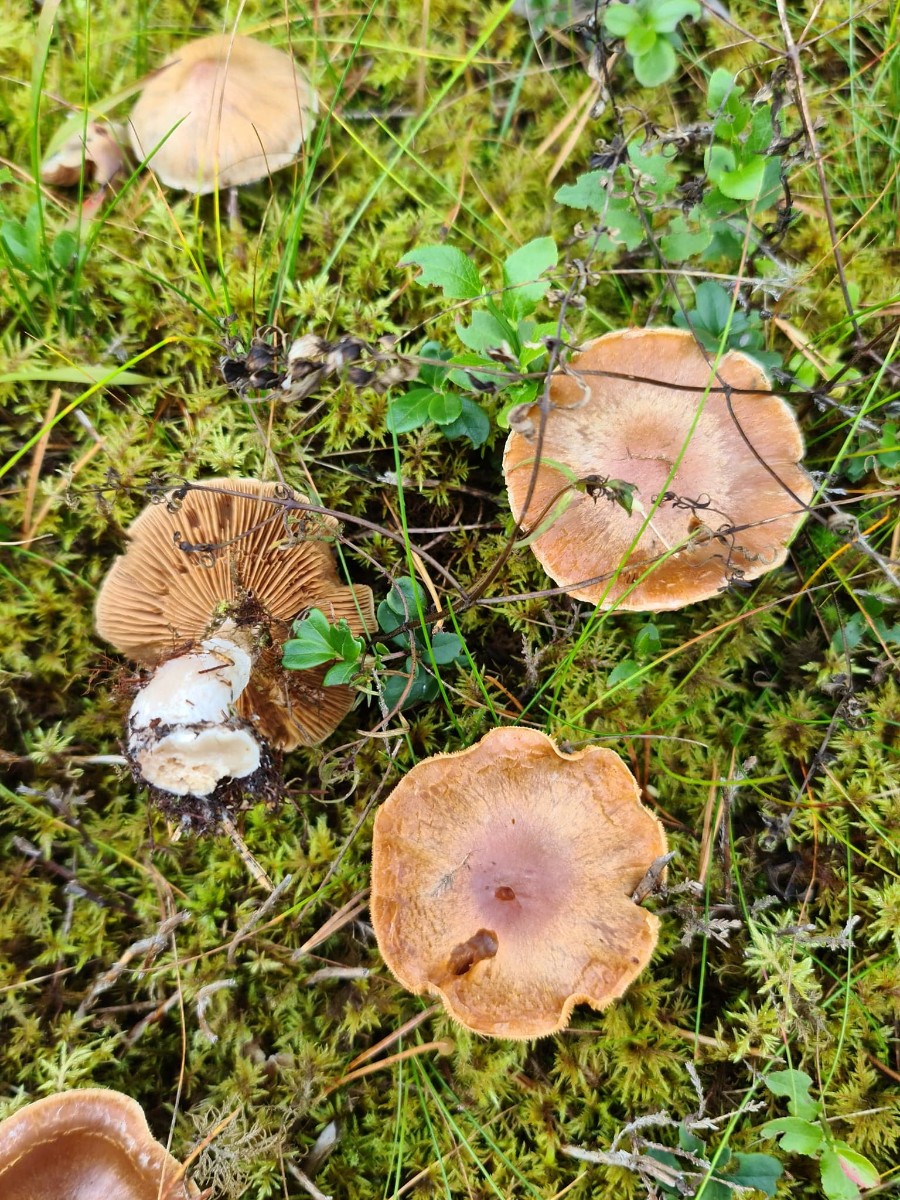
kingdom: Fungi
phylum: Basidiomycota
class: Agaricomycetes
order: Agaricales
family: Cortinariaceae
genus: Cortinarius
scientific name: Cortinarius
